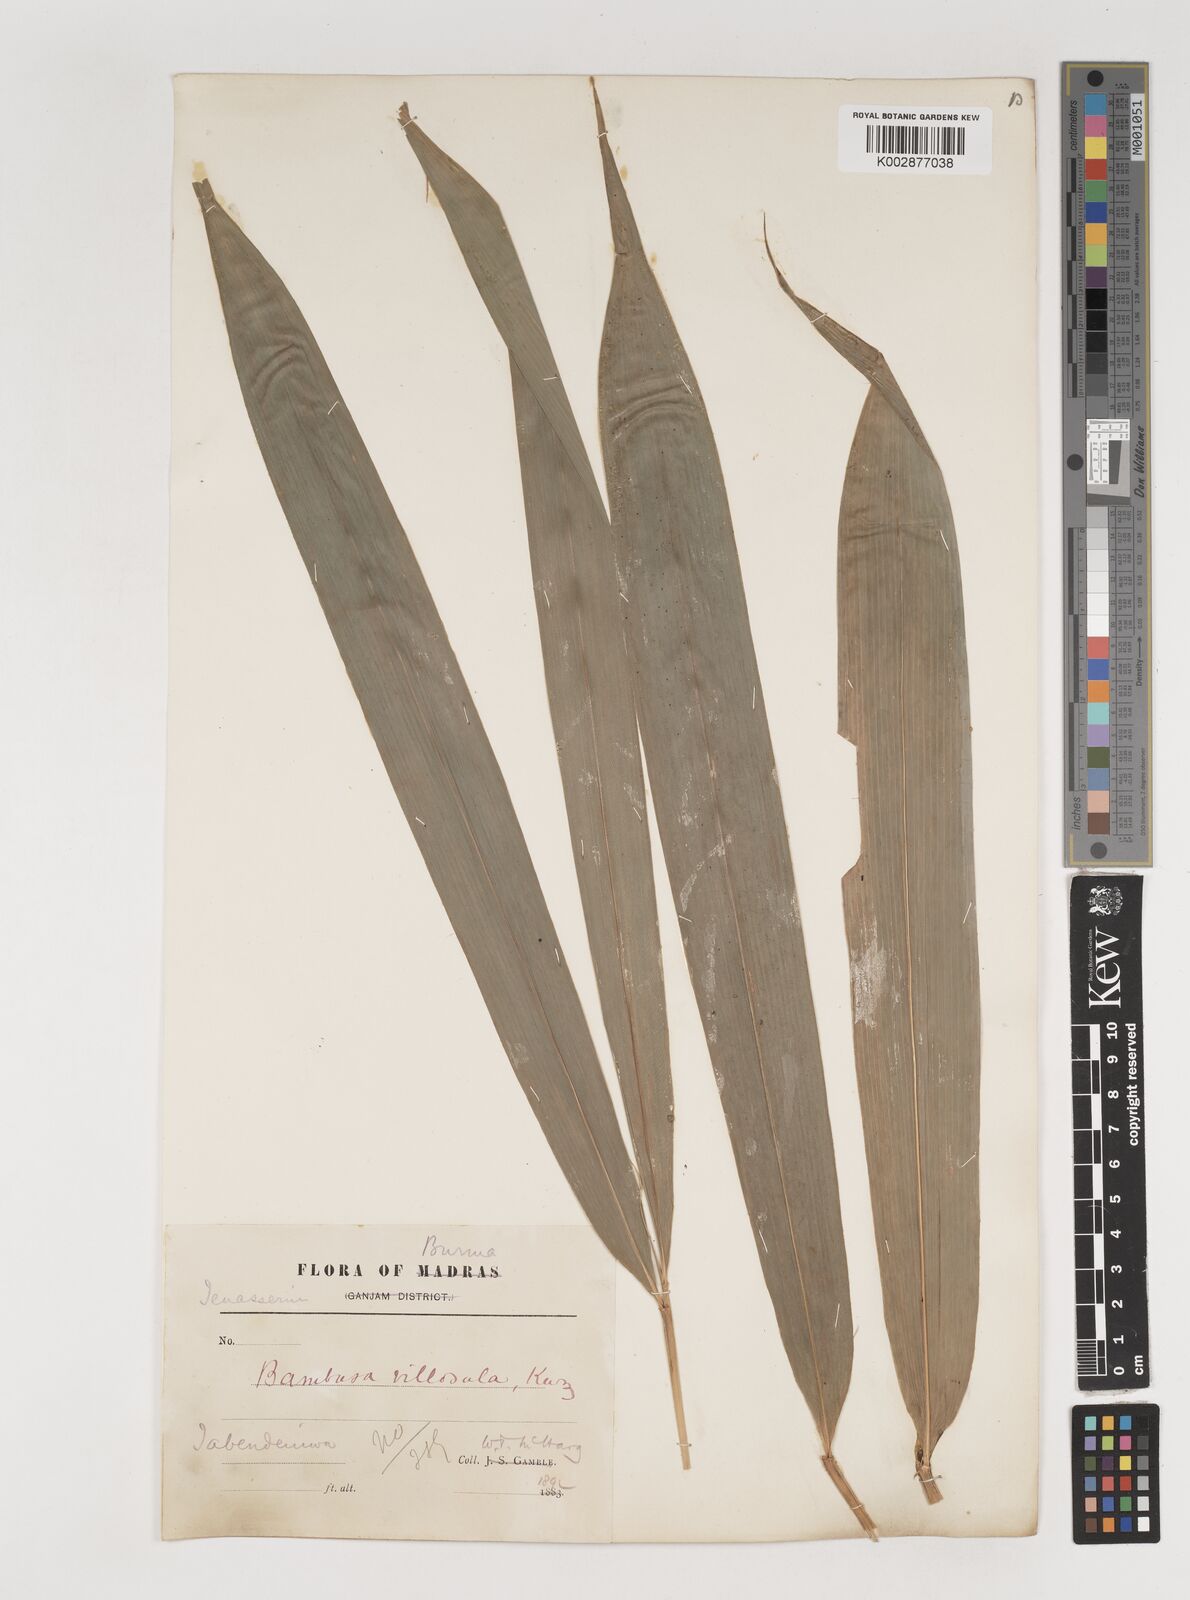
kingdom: Plantae
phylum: Tracheophyta
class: Liliopsida
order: Poales
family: Poaceae
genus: Bambusa
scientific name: Bambusa villosula
